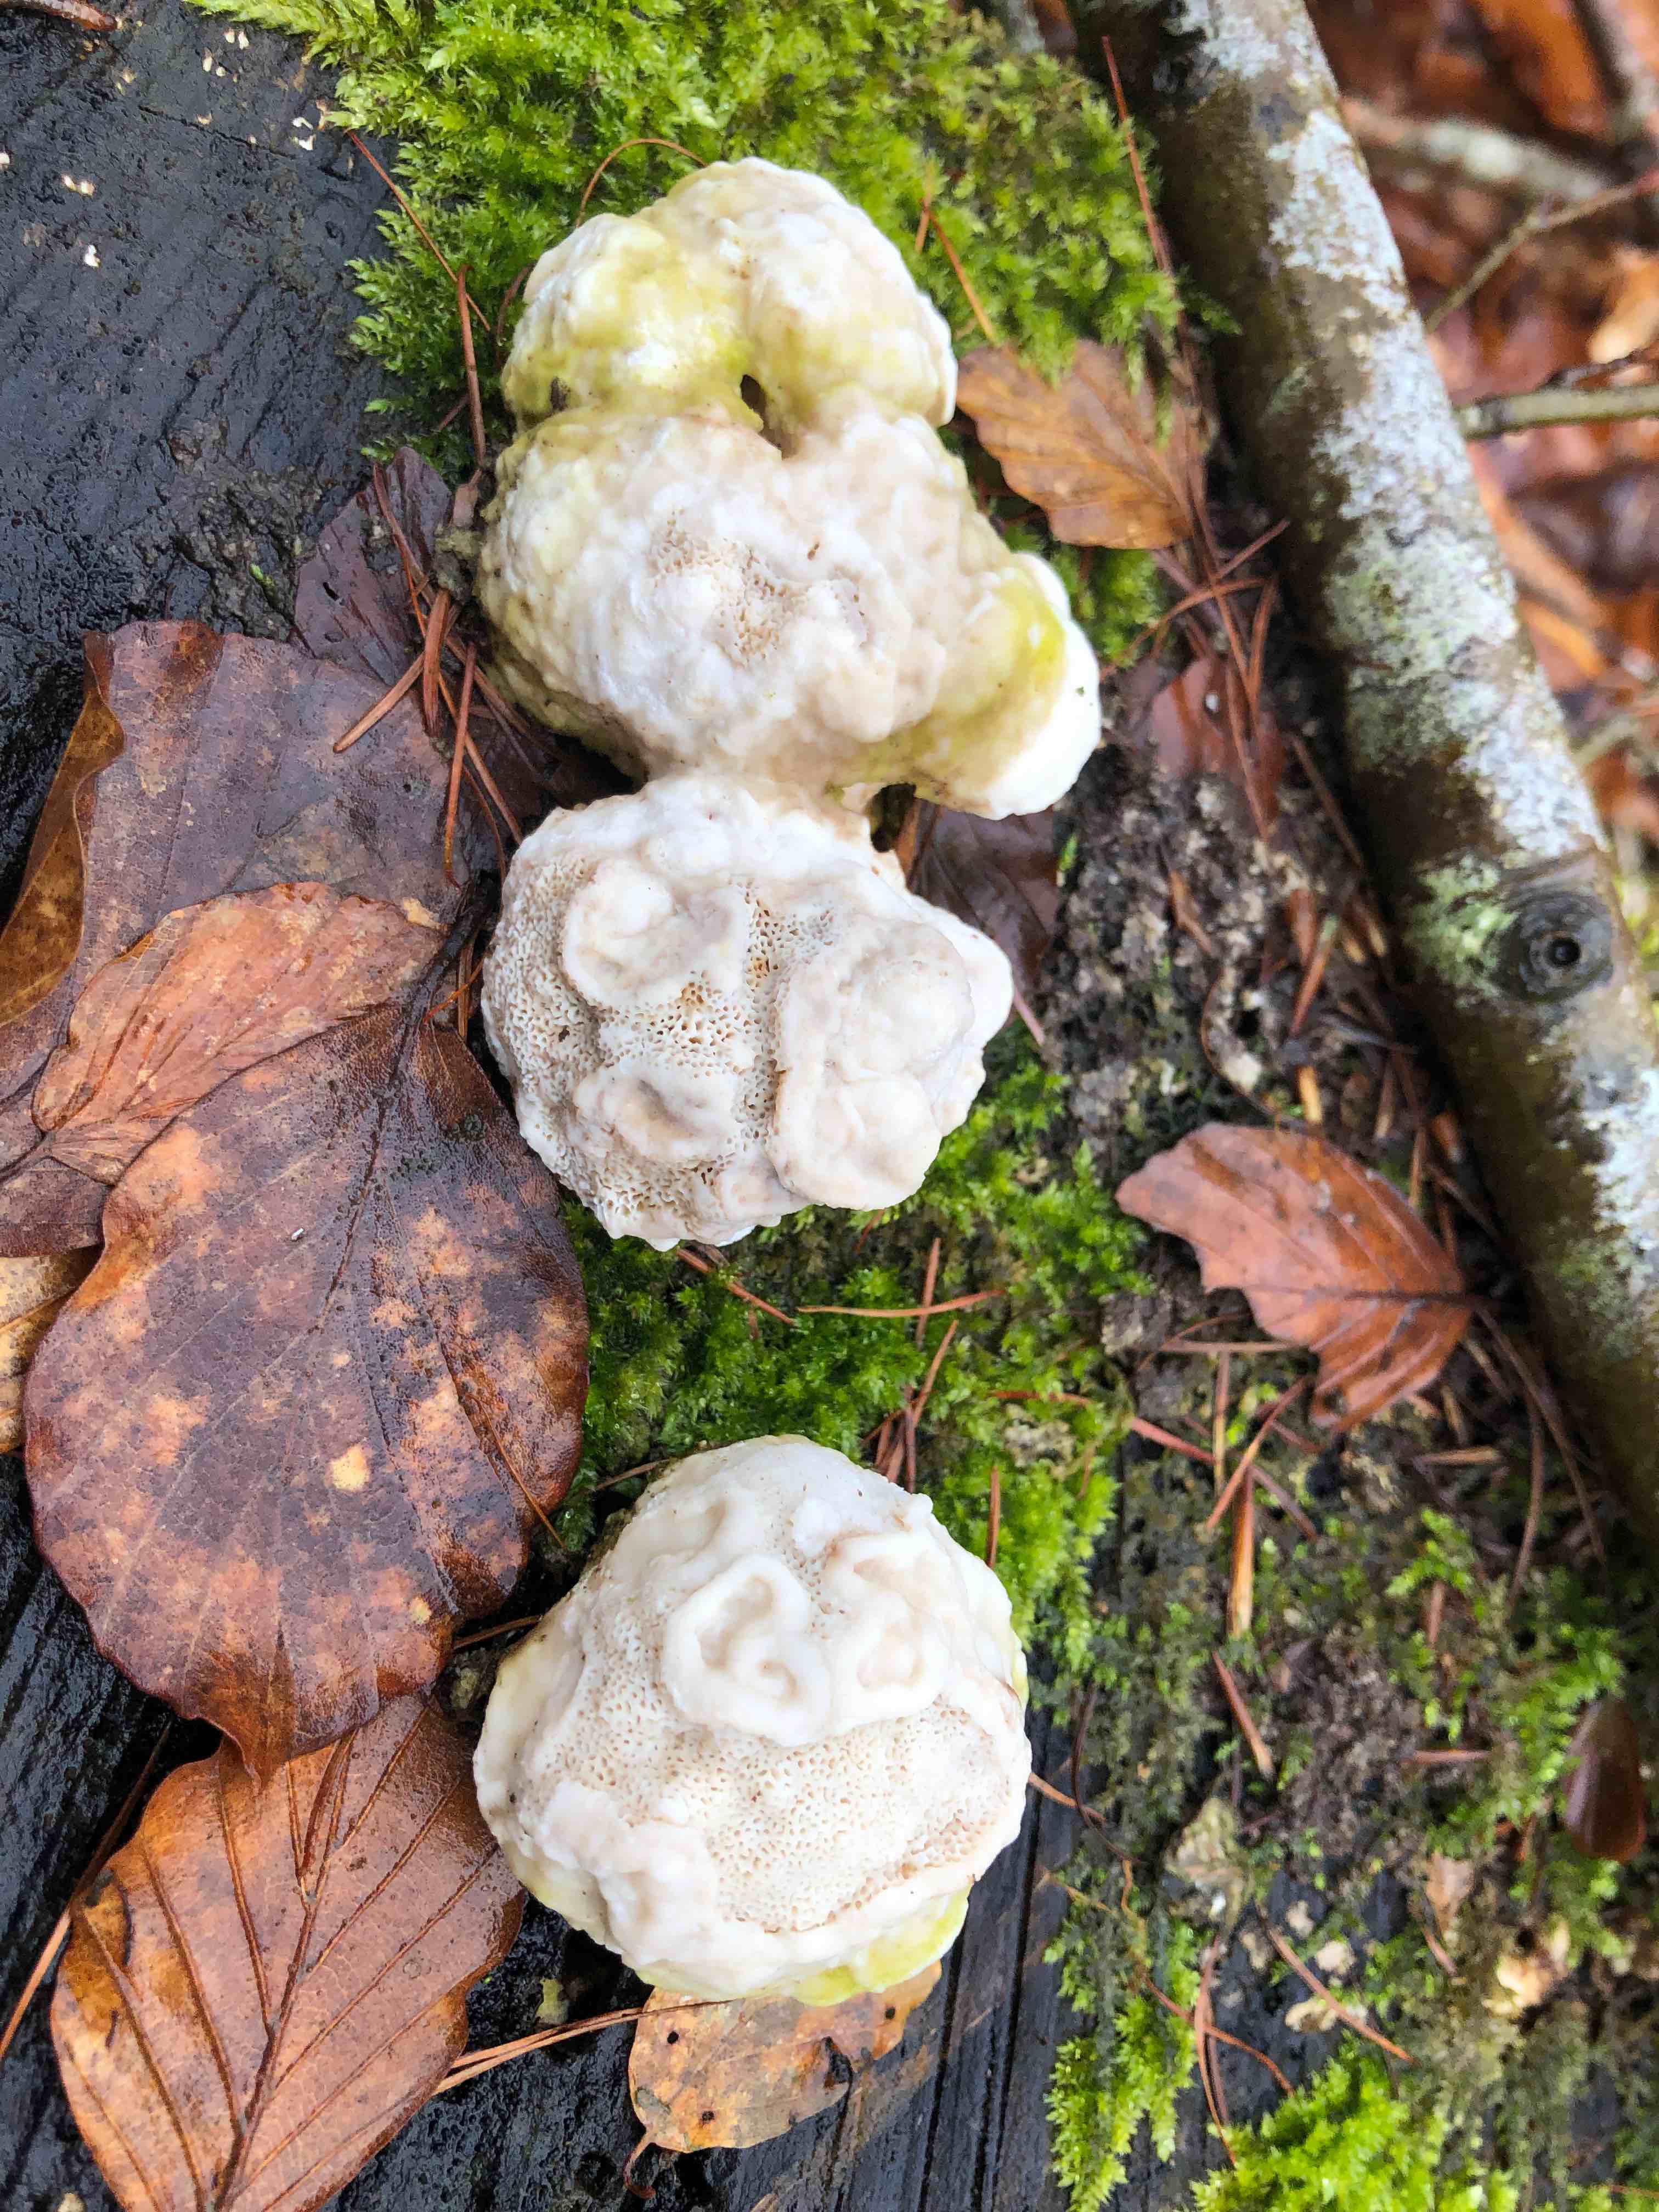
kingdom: Fungi
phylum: Basidiomycota
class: Agaricomycetes
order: Polyporales
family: Polyporaceae
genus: Trametes
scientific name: Trametes gibbosa
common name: puklet læderporesvamp
